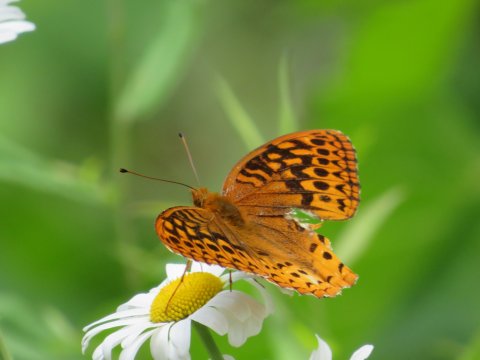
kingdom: Animalia
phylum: Arthropoda
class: Insecta
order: Lepidoptera
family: Nymphalidae
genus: Speyeria
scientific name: Speyeria cybele
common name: Great Spangled Fritillary
